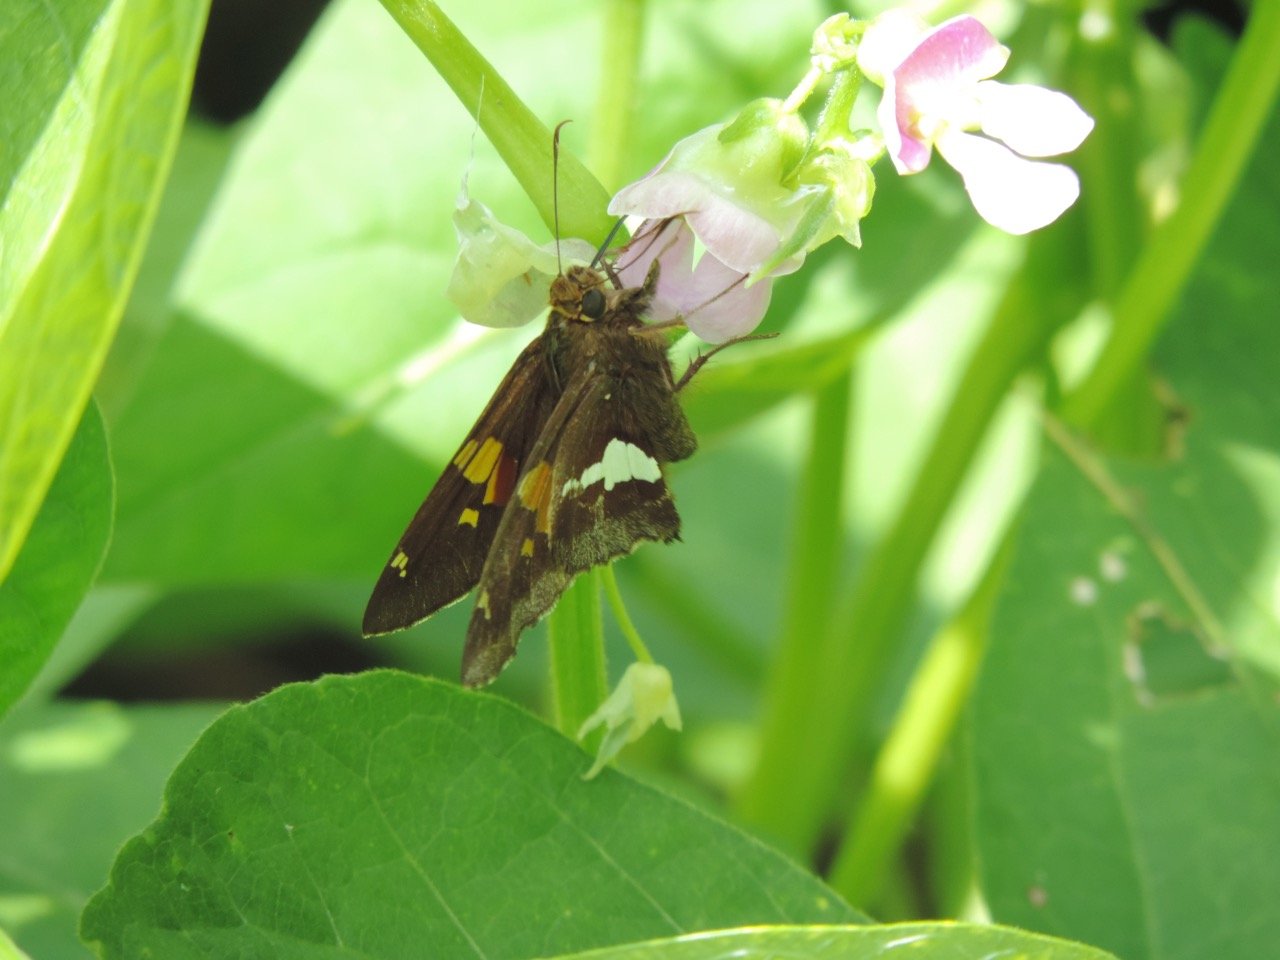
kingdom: Animalia
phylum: Arthropoda
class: Insecta
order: Lepidoptera
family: Hesperiidae
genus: Epargyreus
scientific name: Epargyreus clarus
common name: Silver-spotted Skipper
